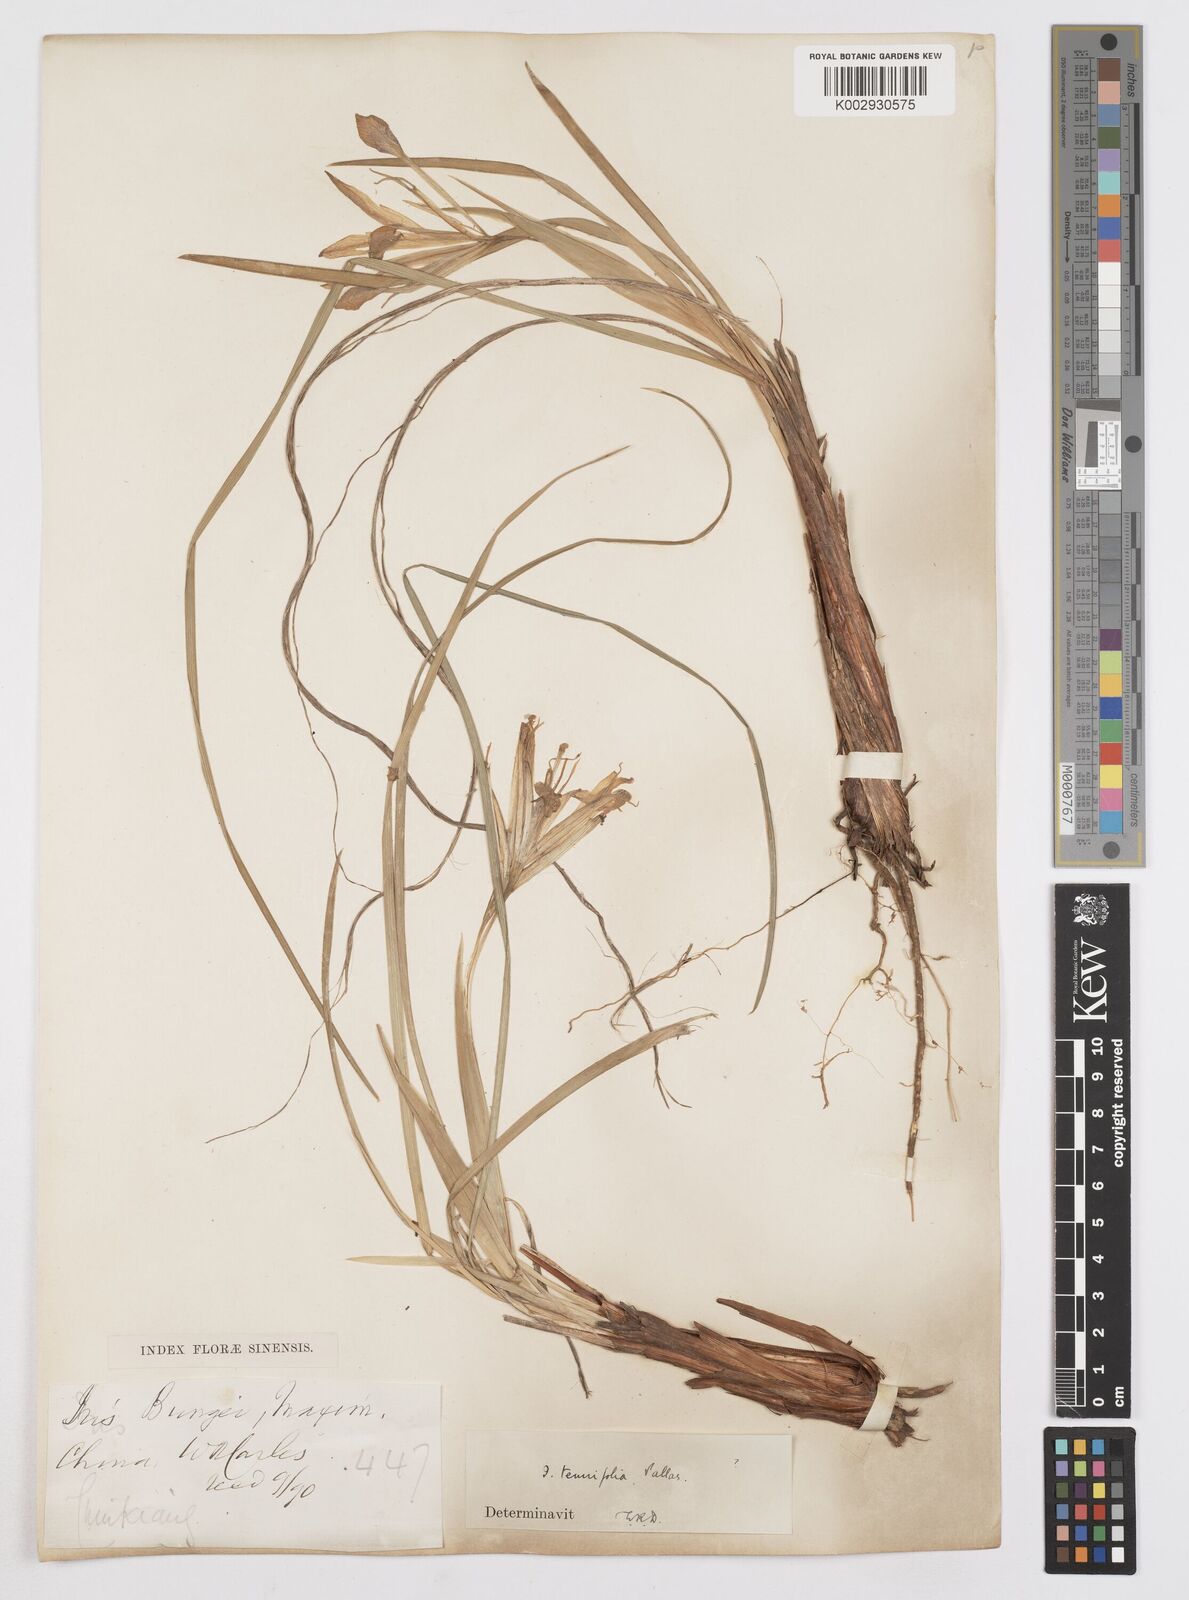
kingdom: Plantae
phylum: Tracheophyta
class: Liliopsida
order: Asparagales
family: Iridaceae
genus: Iris
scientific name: Iris tenuifolia
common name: Slender-leaf iris
